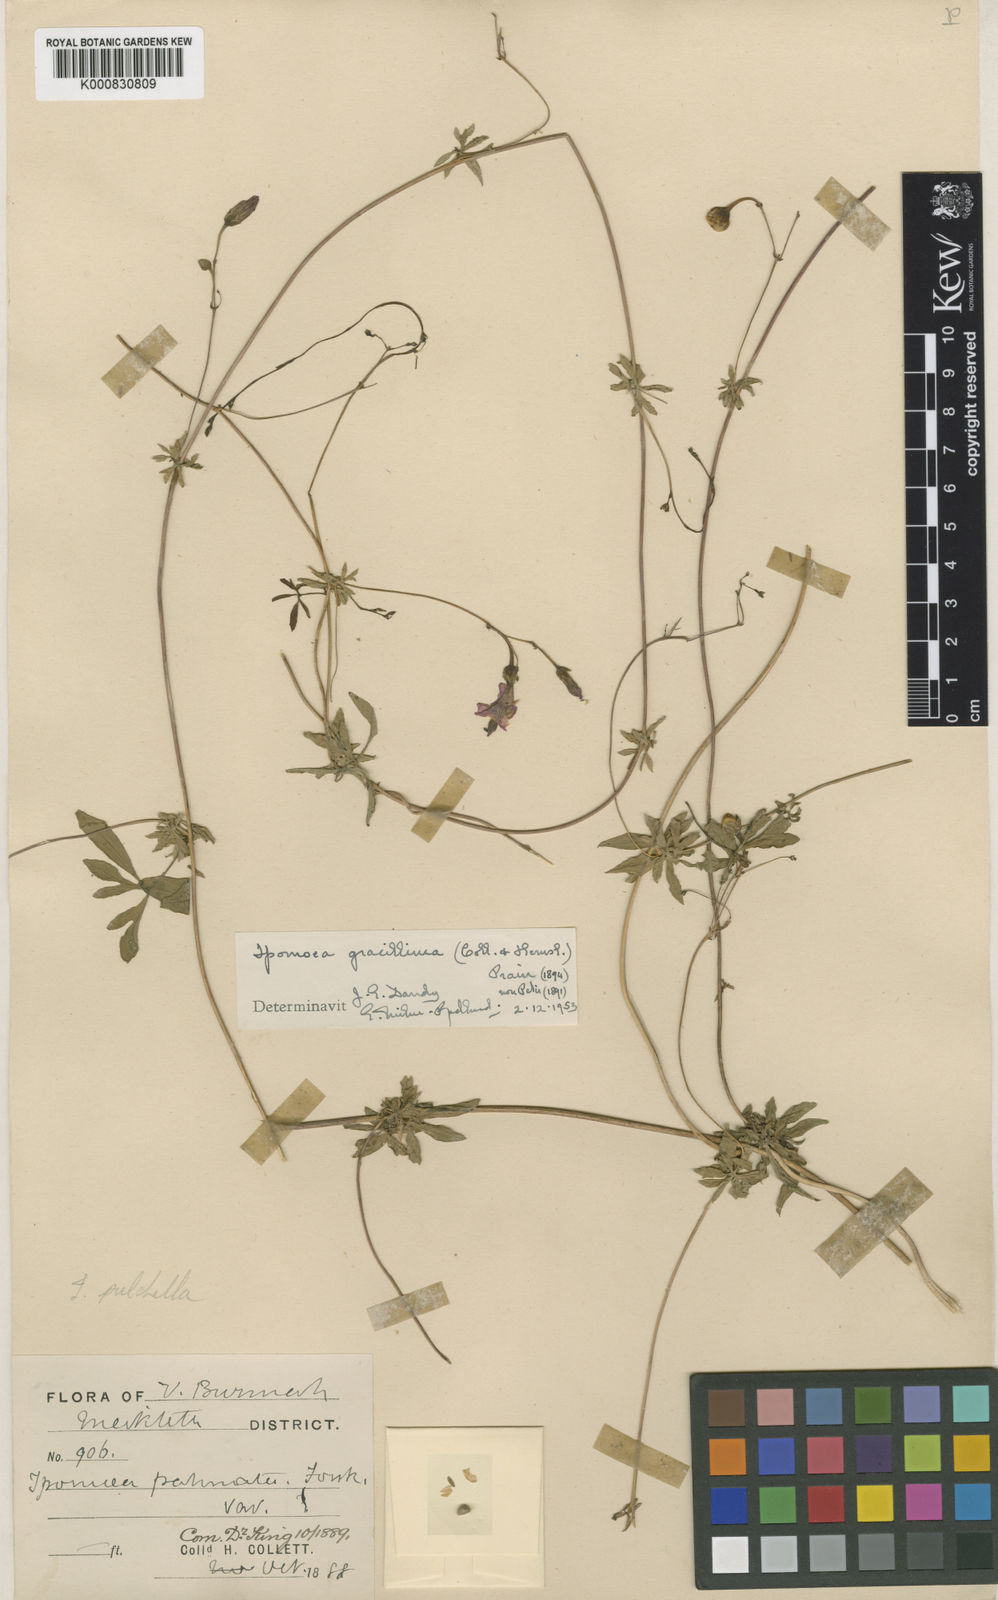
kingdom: Plantae
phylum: Tracheophyta
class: Magnoliopsida
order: Solanales
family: Convolvulaceae
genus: Ipomoea
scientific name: Ipomoea cairica
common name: Mile a minute vine
